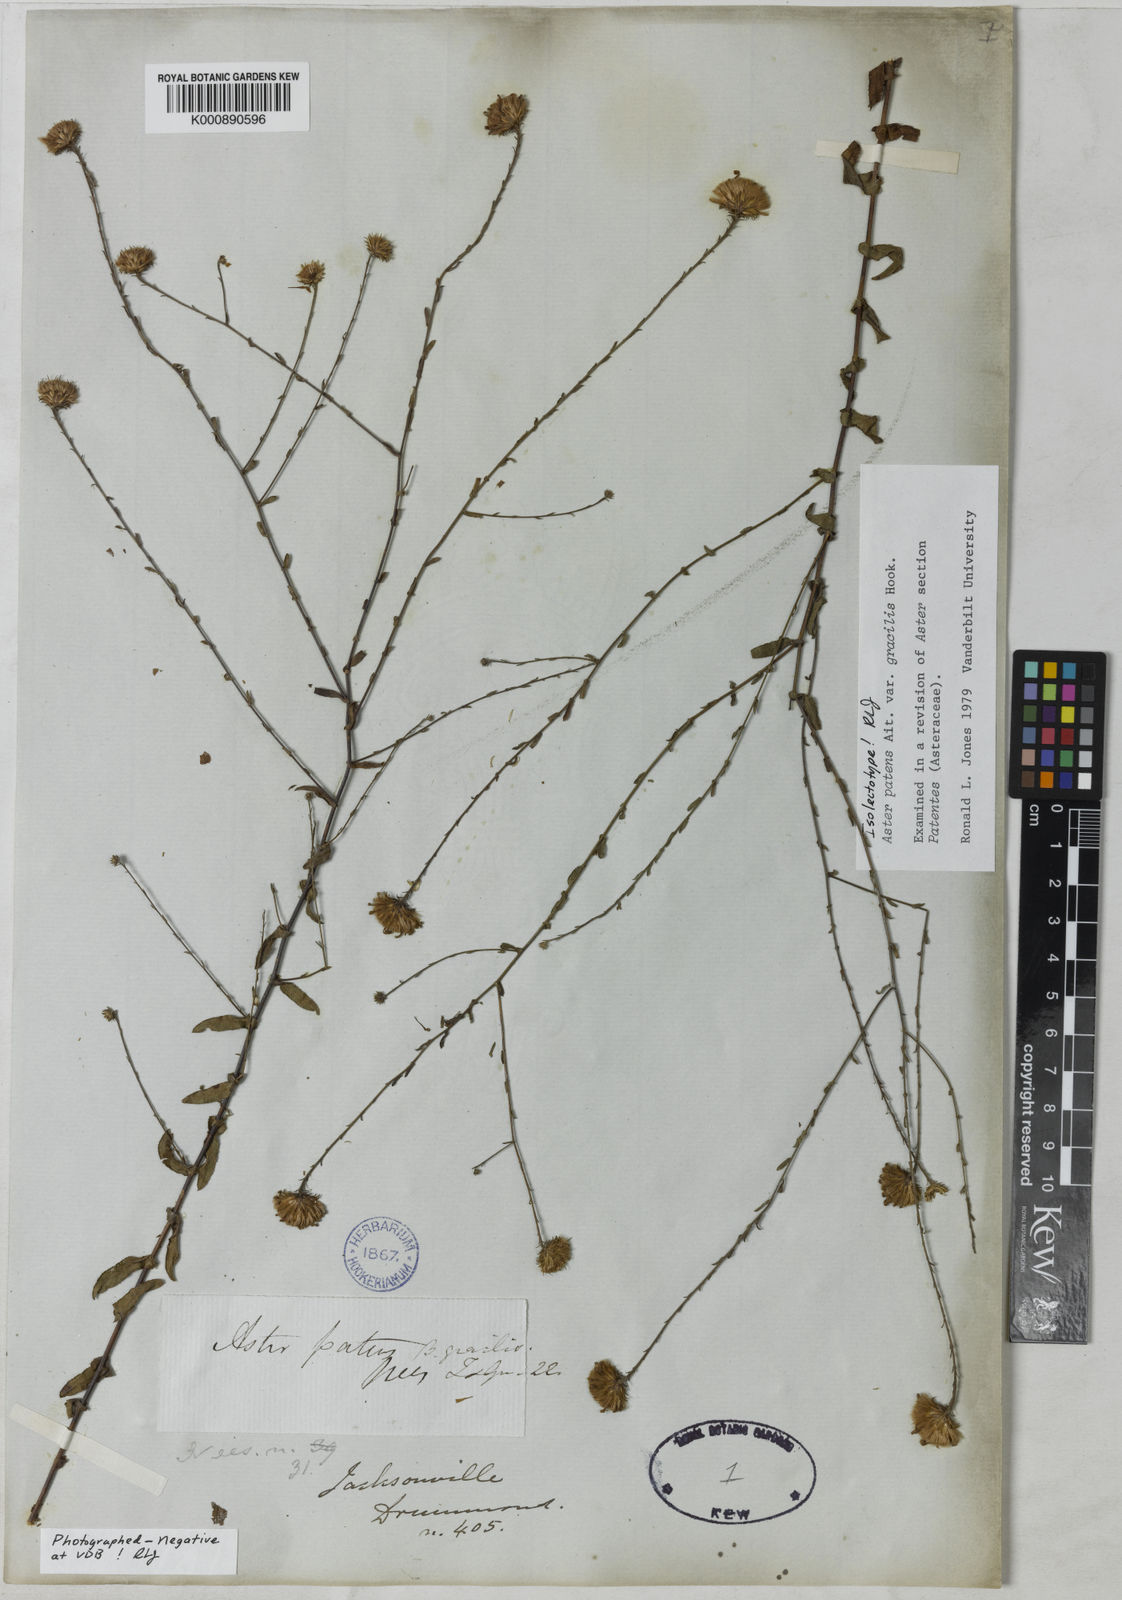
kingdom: Plantae
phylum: Tracheophyta
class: Magnoliopsida
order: Asterales
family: Asteraceae
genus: Symphyotrichum
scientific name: Symphyotrichum patens
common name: Late purple aster
